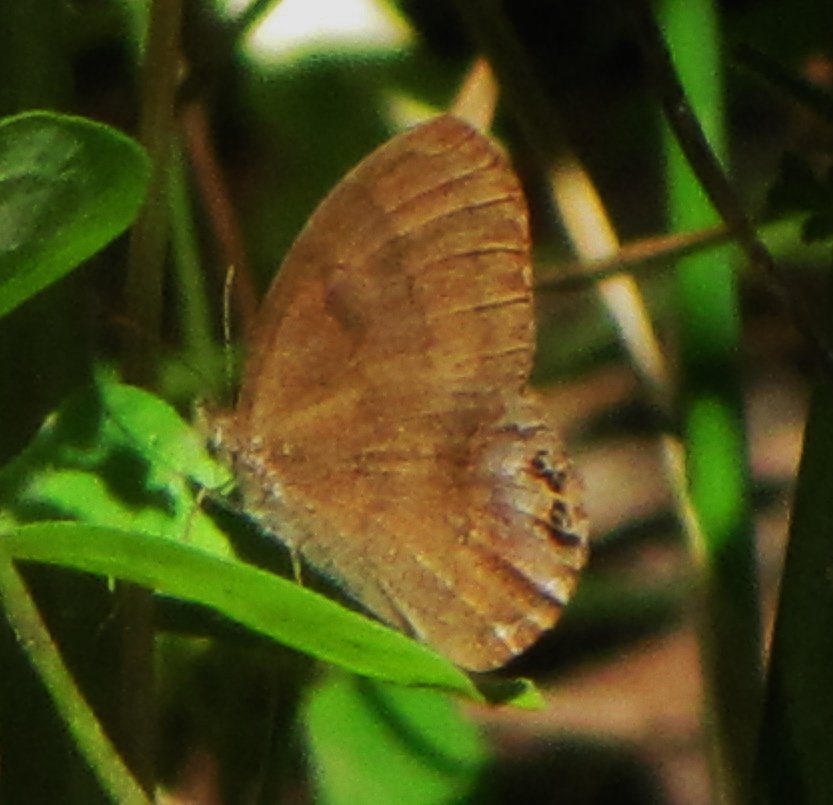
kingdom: Animalia
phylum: Arthropoda
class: Insecta
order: Lepidoptera
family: Nymphalidae
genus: Euptychia
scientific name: Euptychia cornelius
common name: Gemmed Satyr
